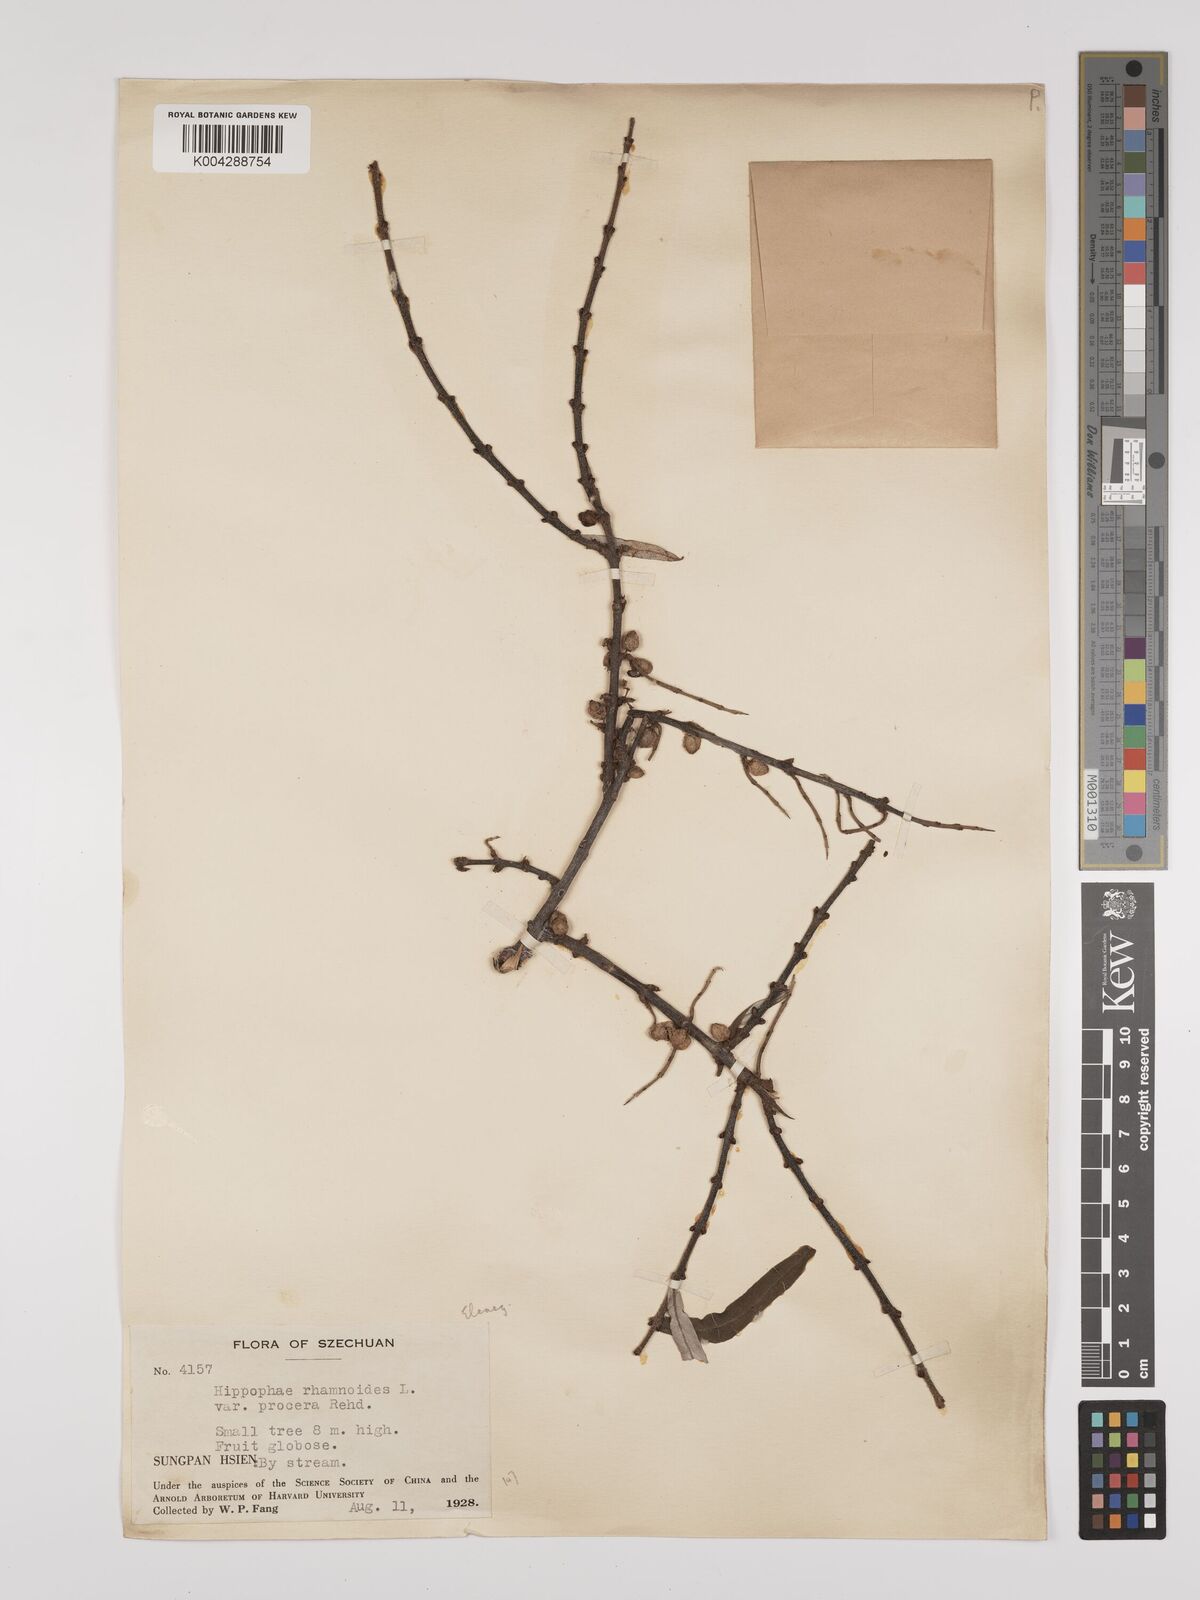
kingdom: Plantae
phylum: Tracheophyta
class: Magnoliopsida
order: Rosales
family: Elaeagnaceae
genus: Hippophae
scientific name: Hippophae rhamnoides
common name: Sea-buckthorn
